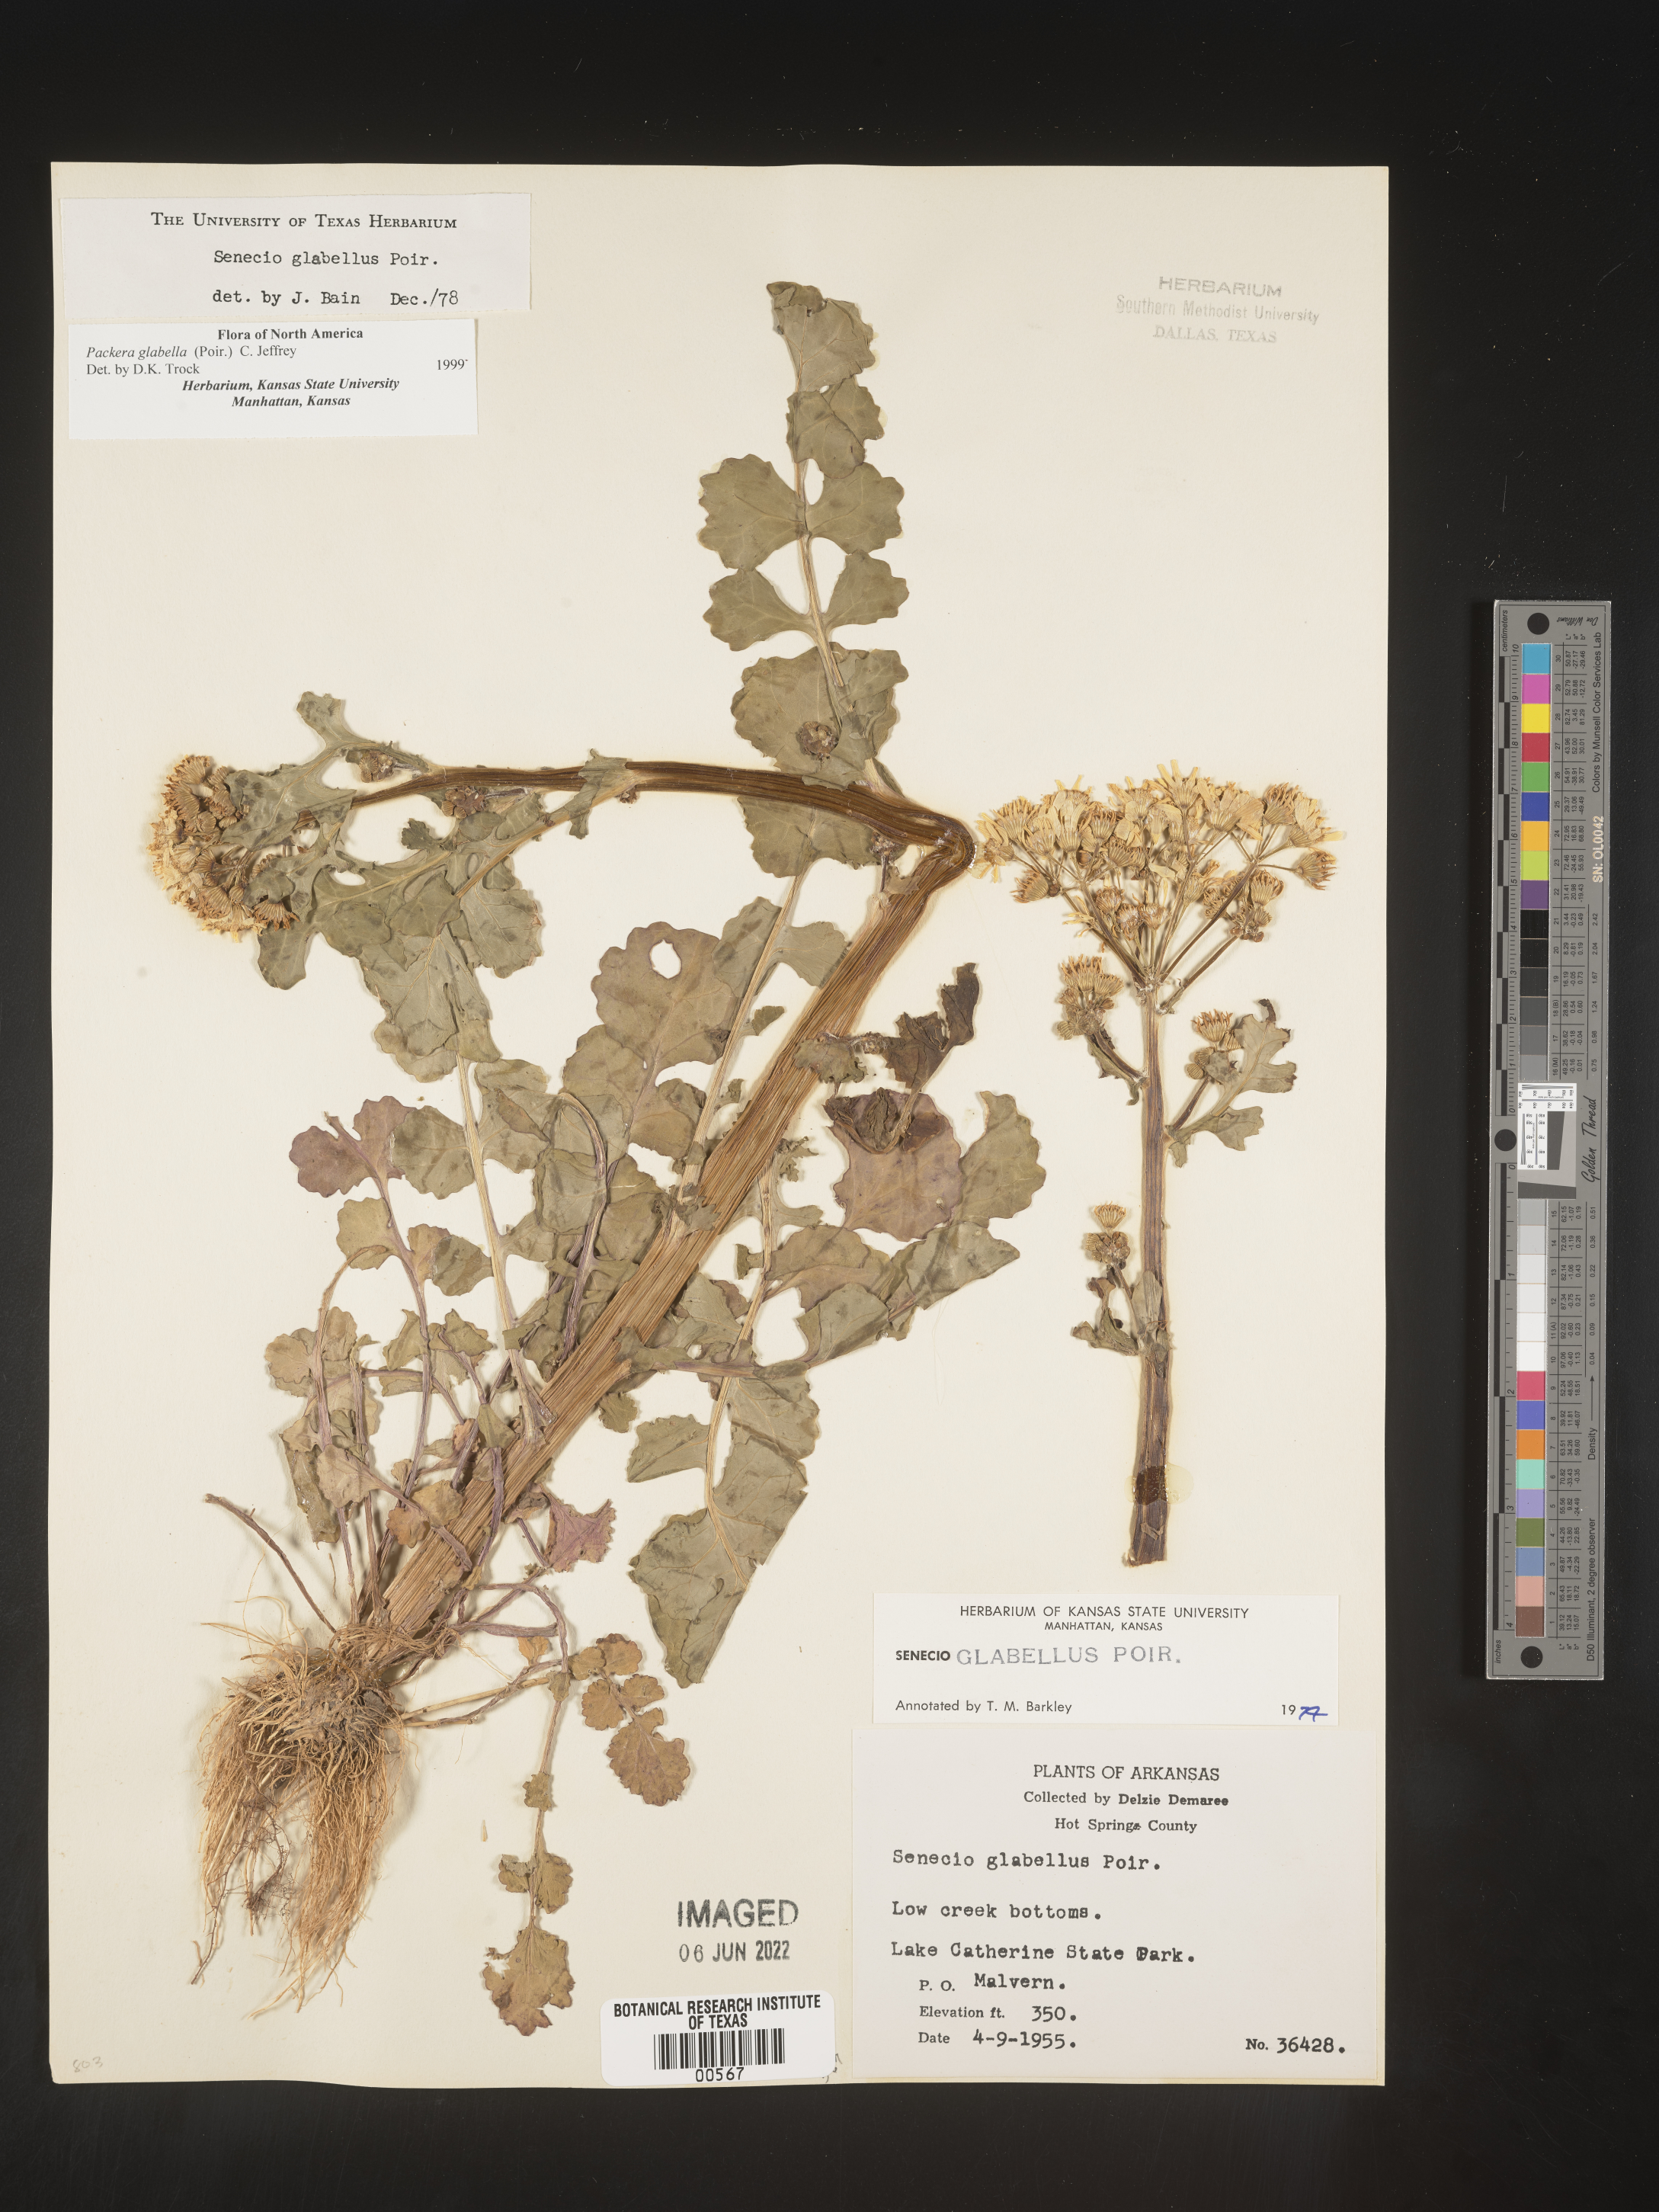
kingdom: Plantae
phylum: Tracheophyta
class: Magnoliopsida
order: Asterales
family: Asteraceae
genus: Packera
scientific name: Packera glabella
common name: Butterweed
